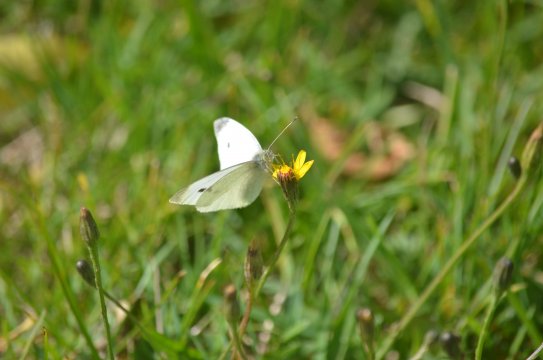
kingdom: Animalia
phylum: Arthropoda
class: Insecta
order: Lepidoptera
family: Pieridae
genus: Pieris
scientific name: Pieris rapae
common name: Cabbage White
